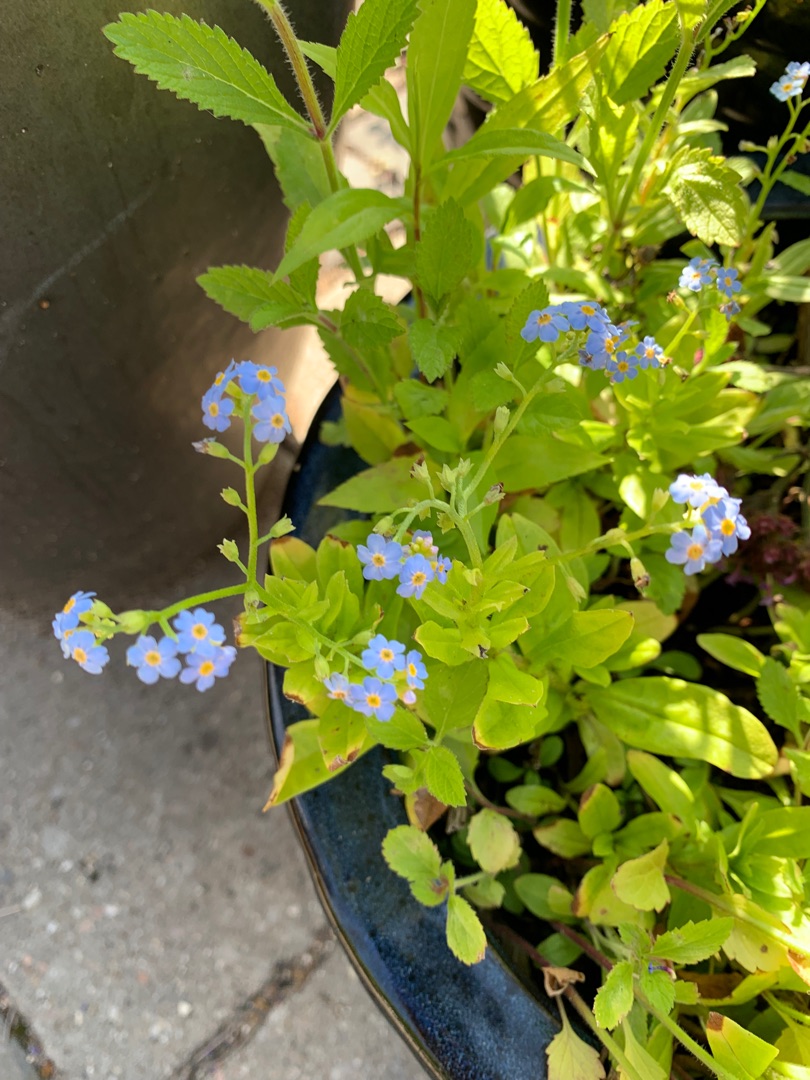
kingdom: Plantae
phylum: Tracheophyta
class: Magnoliopsida
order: Boraginales
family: Boraginaceae
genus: Myosotis
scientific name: Myosotis scorpioides
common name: Eng-forglemmigej
